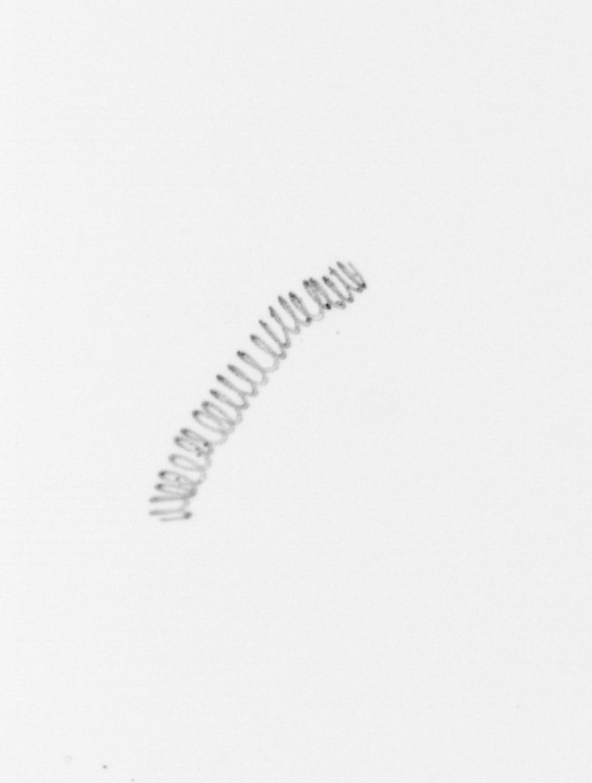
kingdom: Chromista
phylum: Ochrophyta
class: Bacillariophyceae
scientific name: Bacillariophyceae
